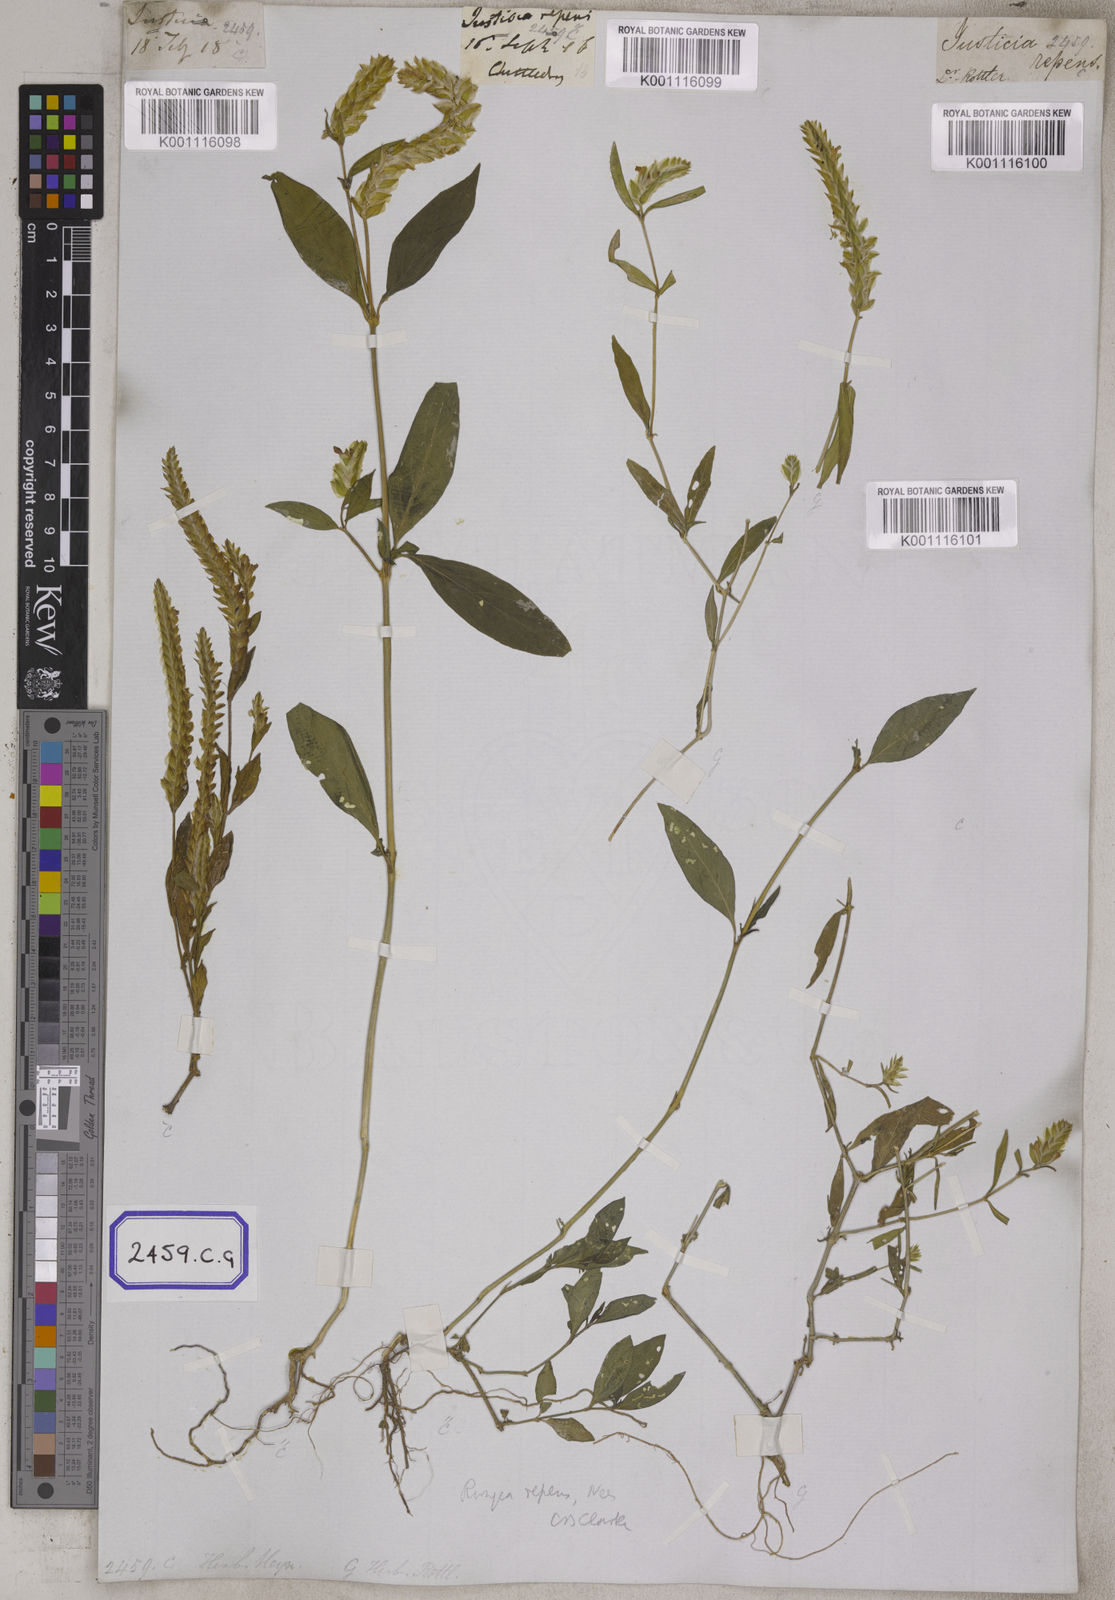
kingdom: Plantae
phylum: Tracheophyta
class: Magnoliopsida
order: Lamiales
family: Acanthaceae
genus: Justicia
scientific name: Justicia
